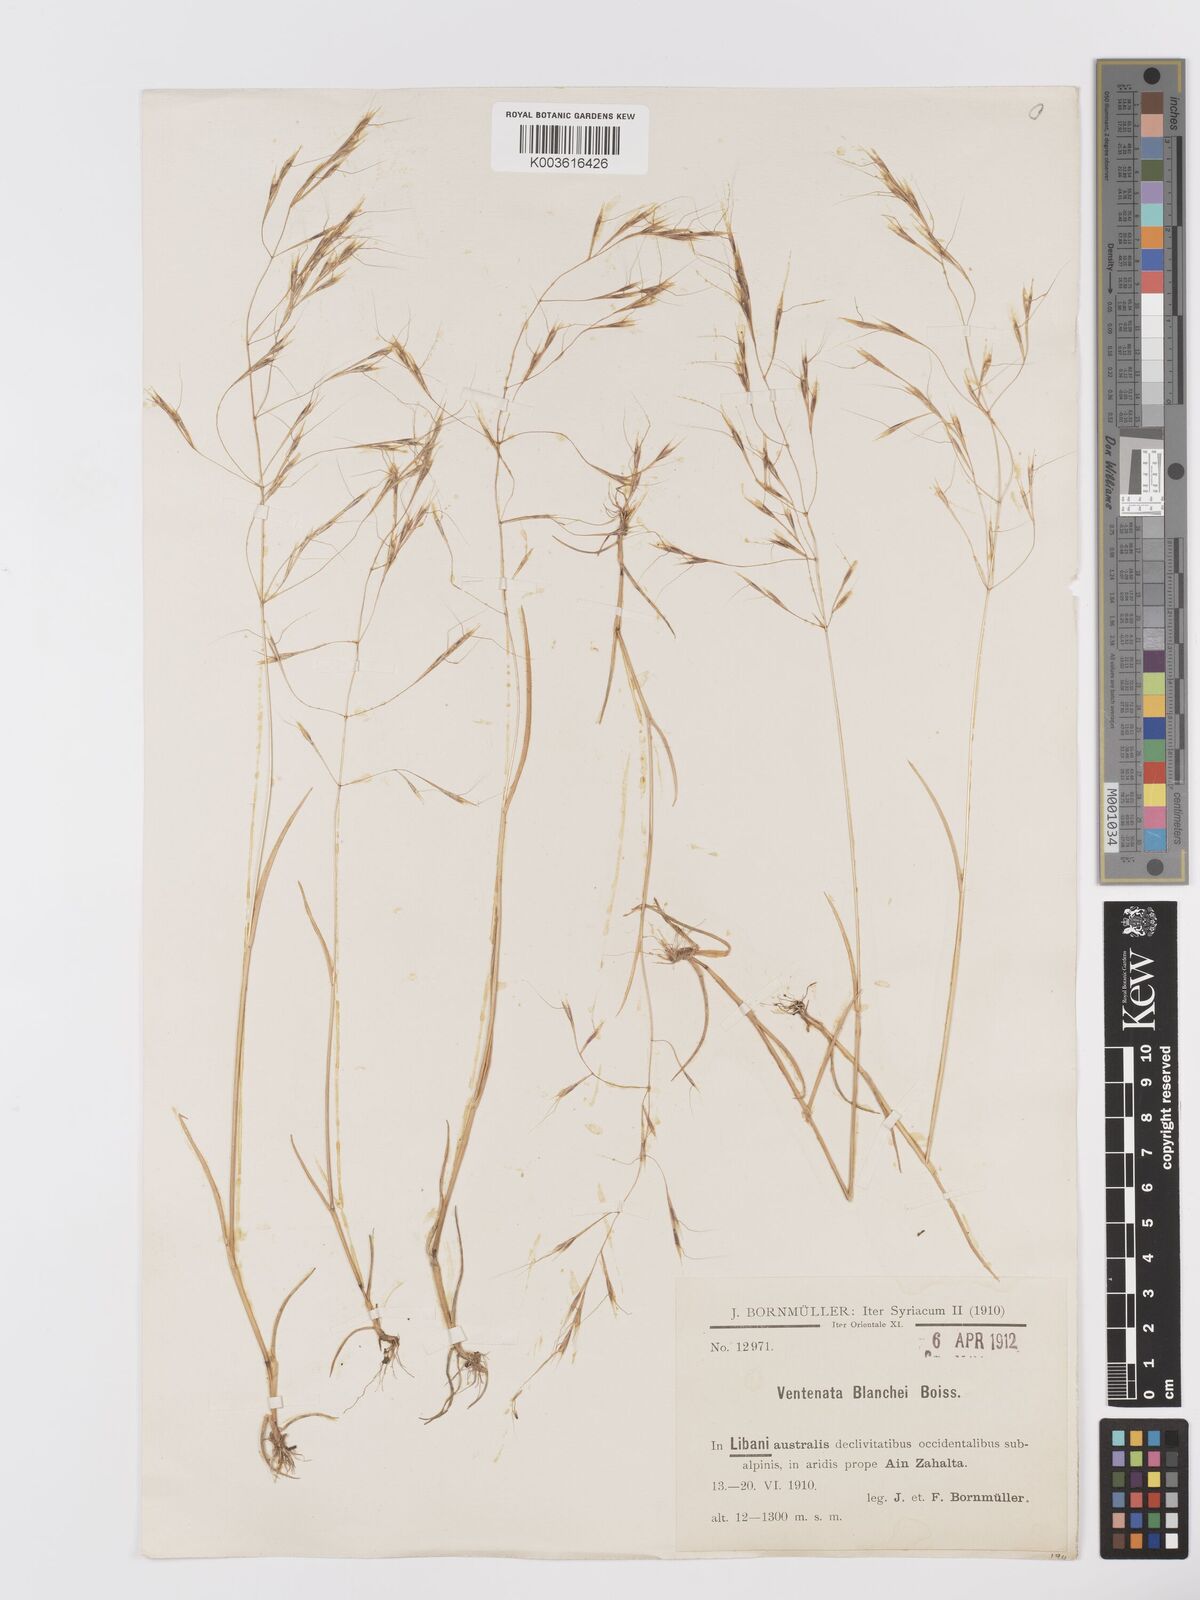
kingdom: Plantae
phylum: Tracheophyta
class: Liliopsida
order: Poales
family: Poaceae
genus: Ventenata
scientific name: Ventenata blanchei
